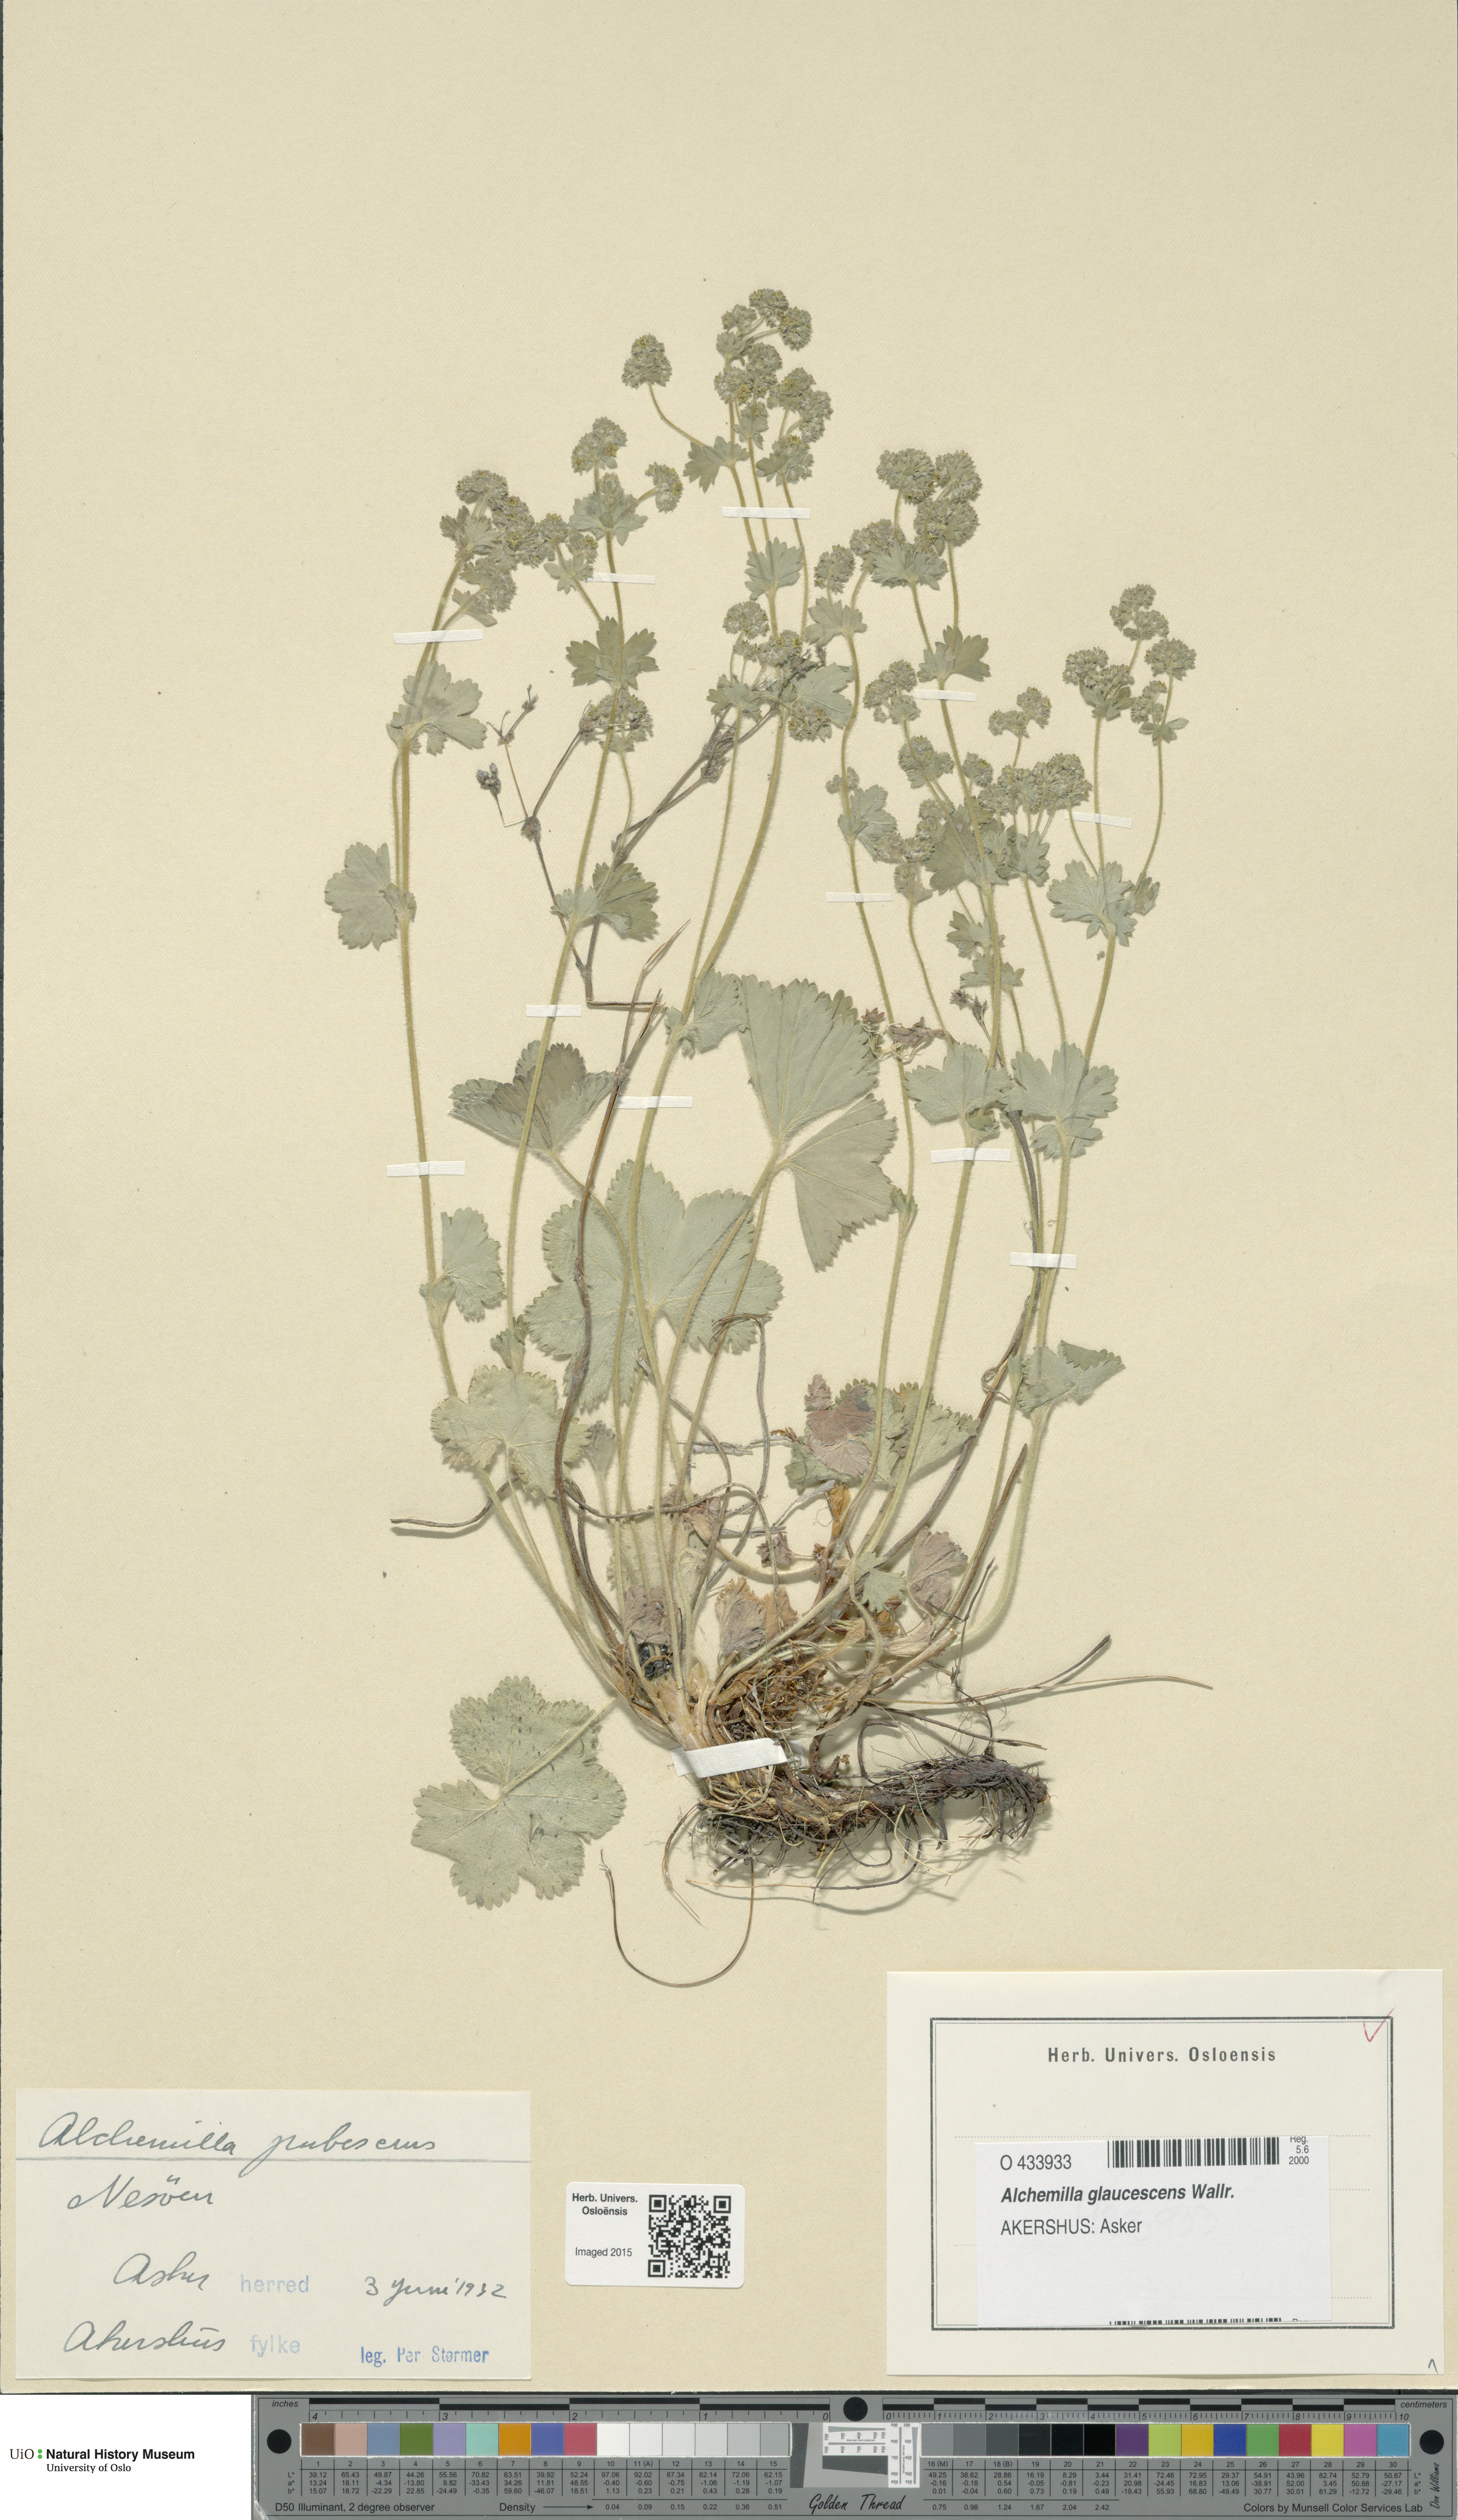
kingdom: Plantae
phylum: Tracheophyta
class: Magnoliopsida
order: Rosales
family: Rosaceae
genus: Alchemilla
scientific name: Alchemilla glaucescens
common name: Silky lady's mantle
